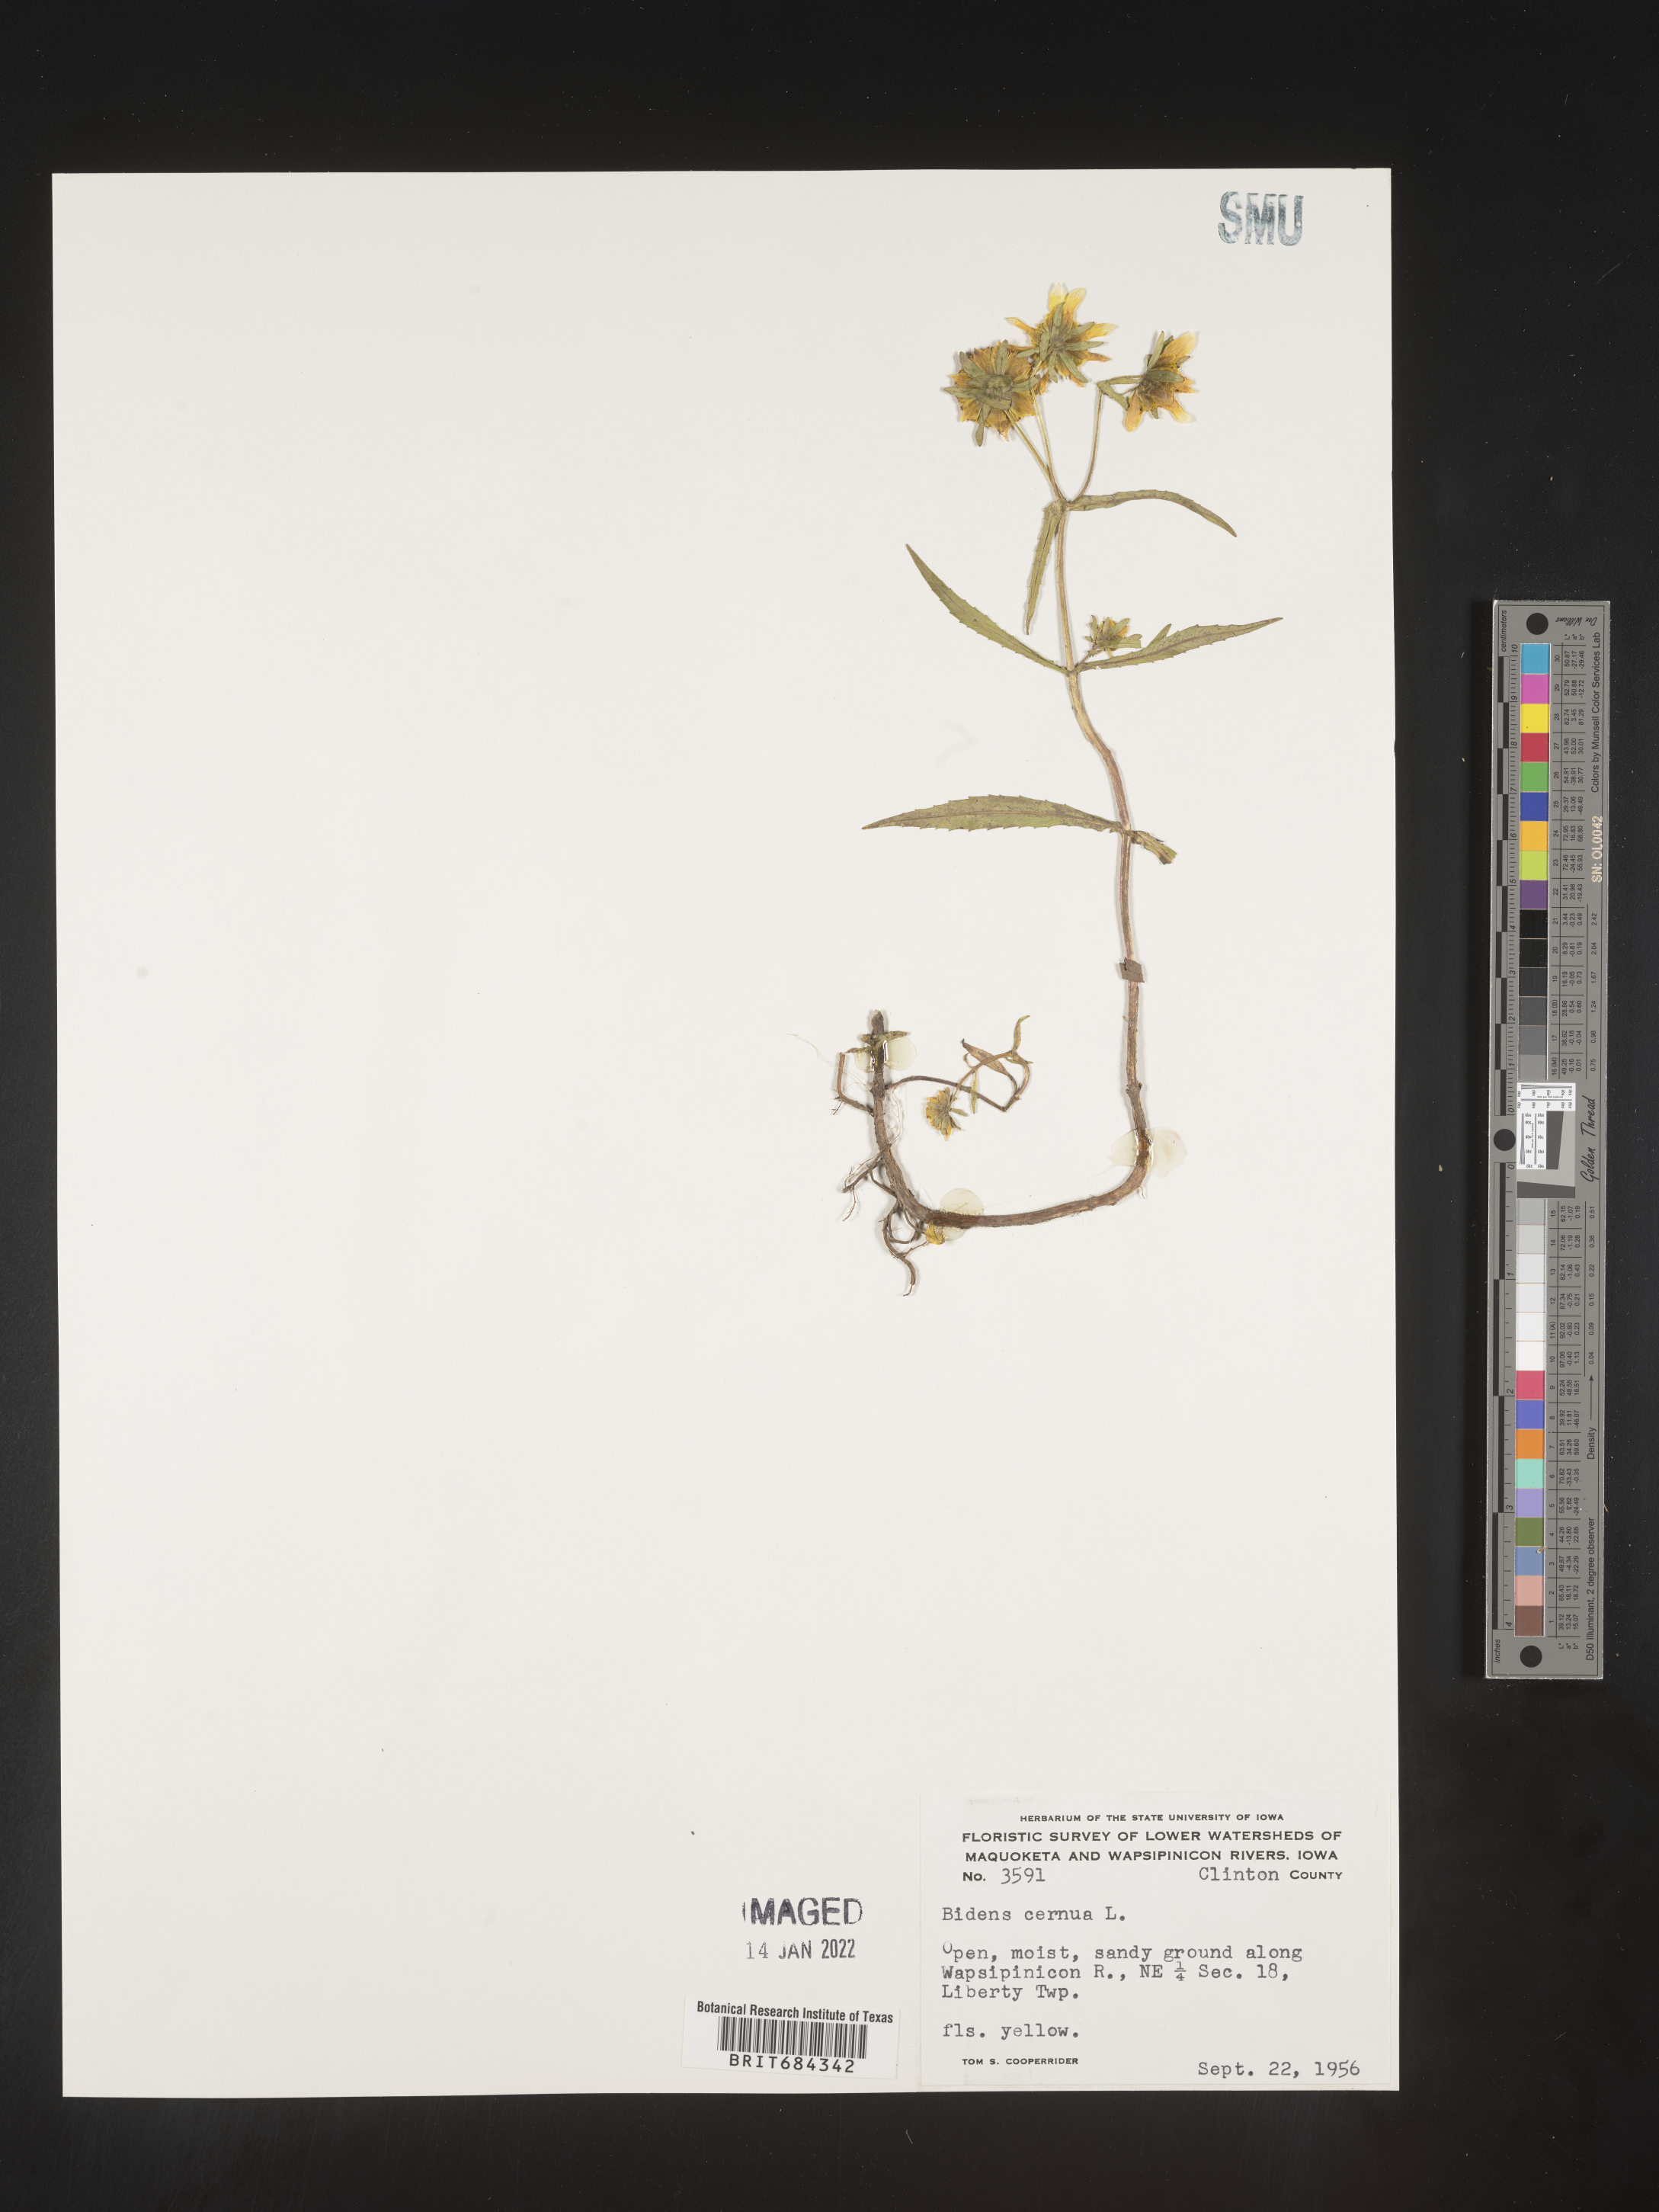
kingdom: Plantae
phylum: Tracheophyta
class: Magnoliopsida
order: Asterales
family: Asteraceae
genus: Bidens
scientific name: Bidens cernua
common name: Nodding bur-marigold
